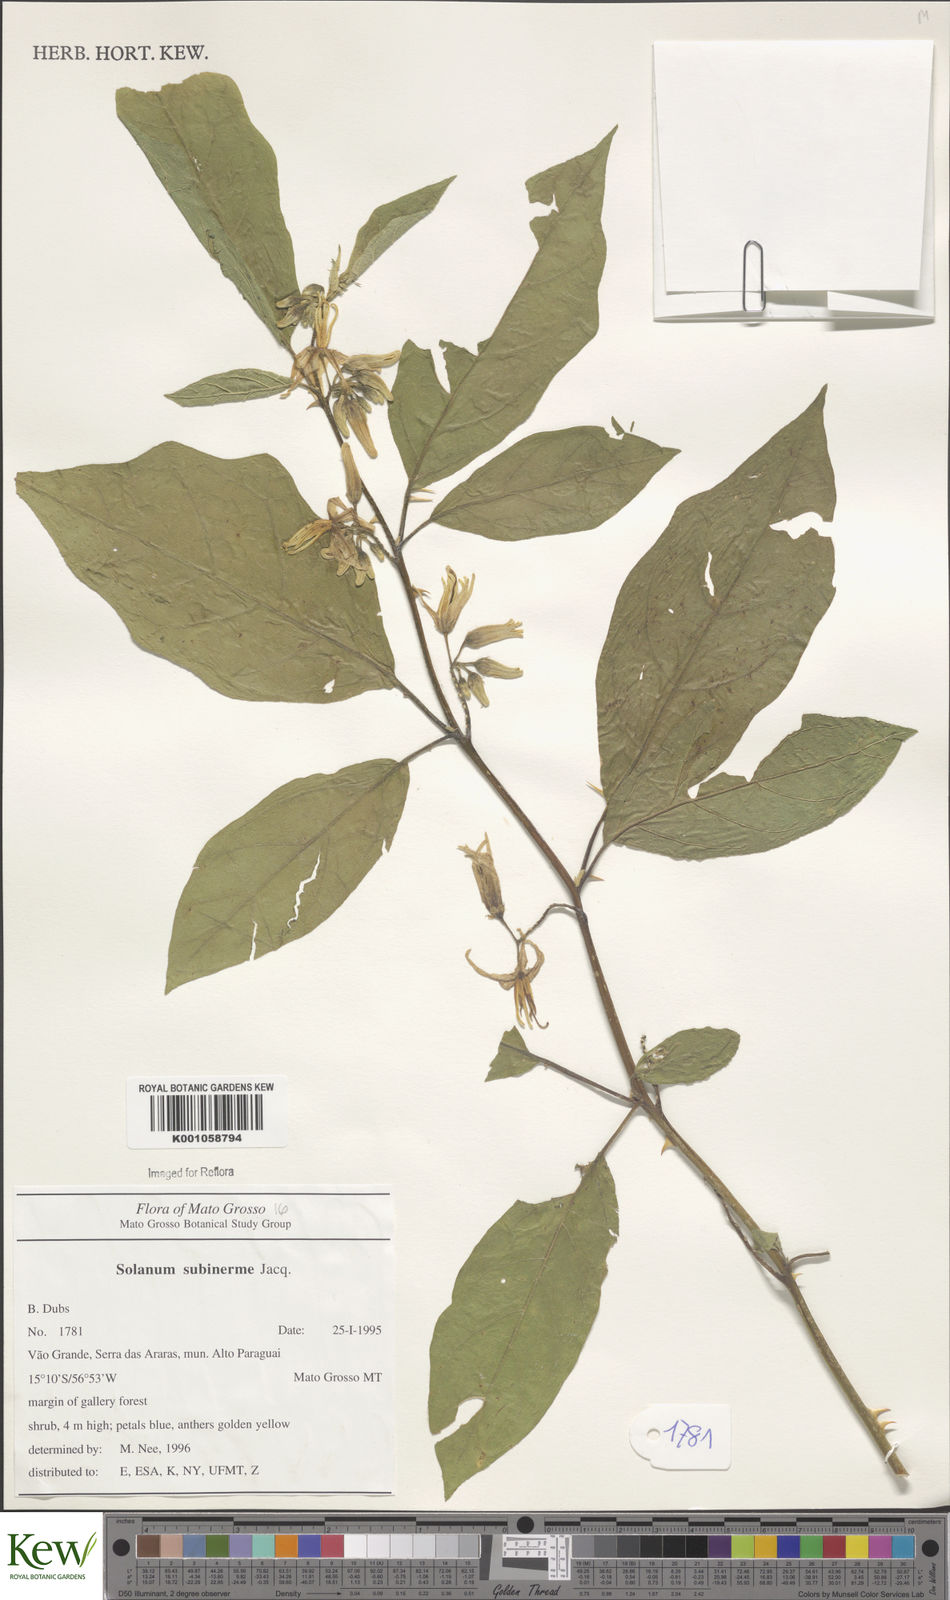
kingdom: Plantae
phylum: Tracheophyta
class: Magnoliopsida
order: Solanales
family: Solanaceae
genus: Solanum
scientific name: Solanum subinerme
